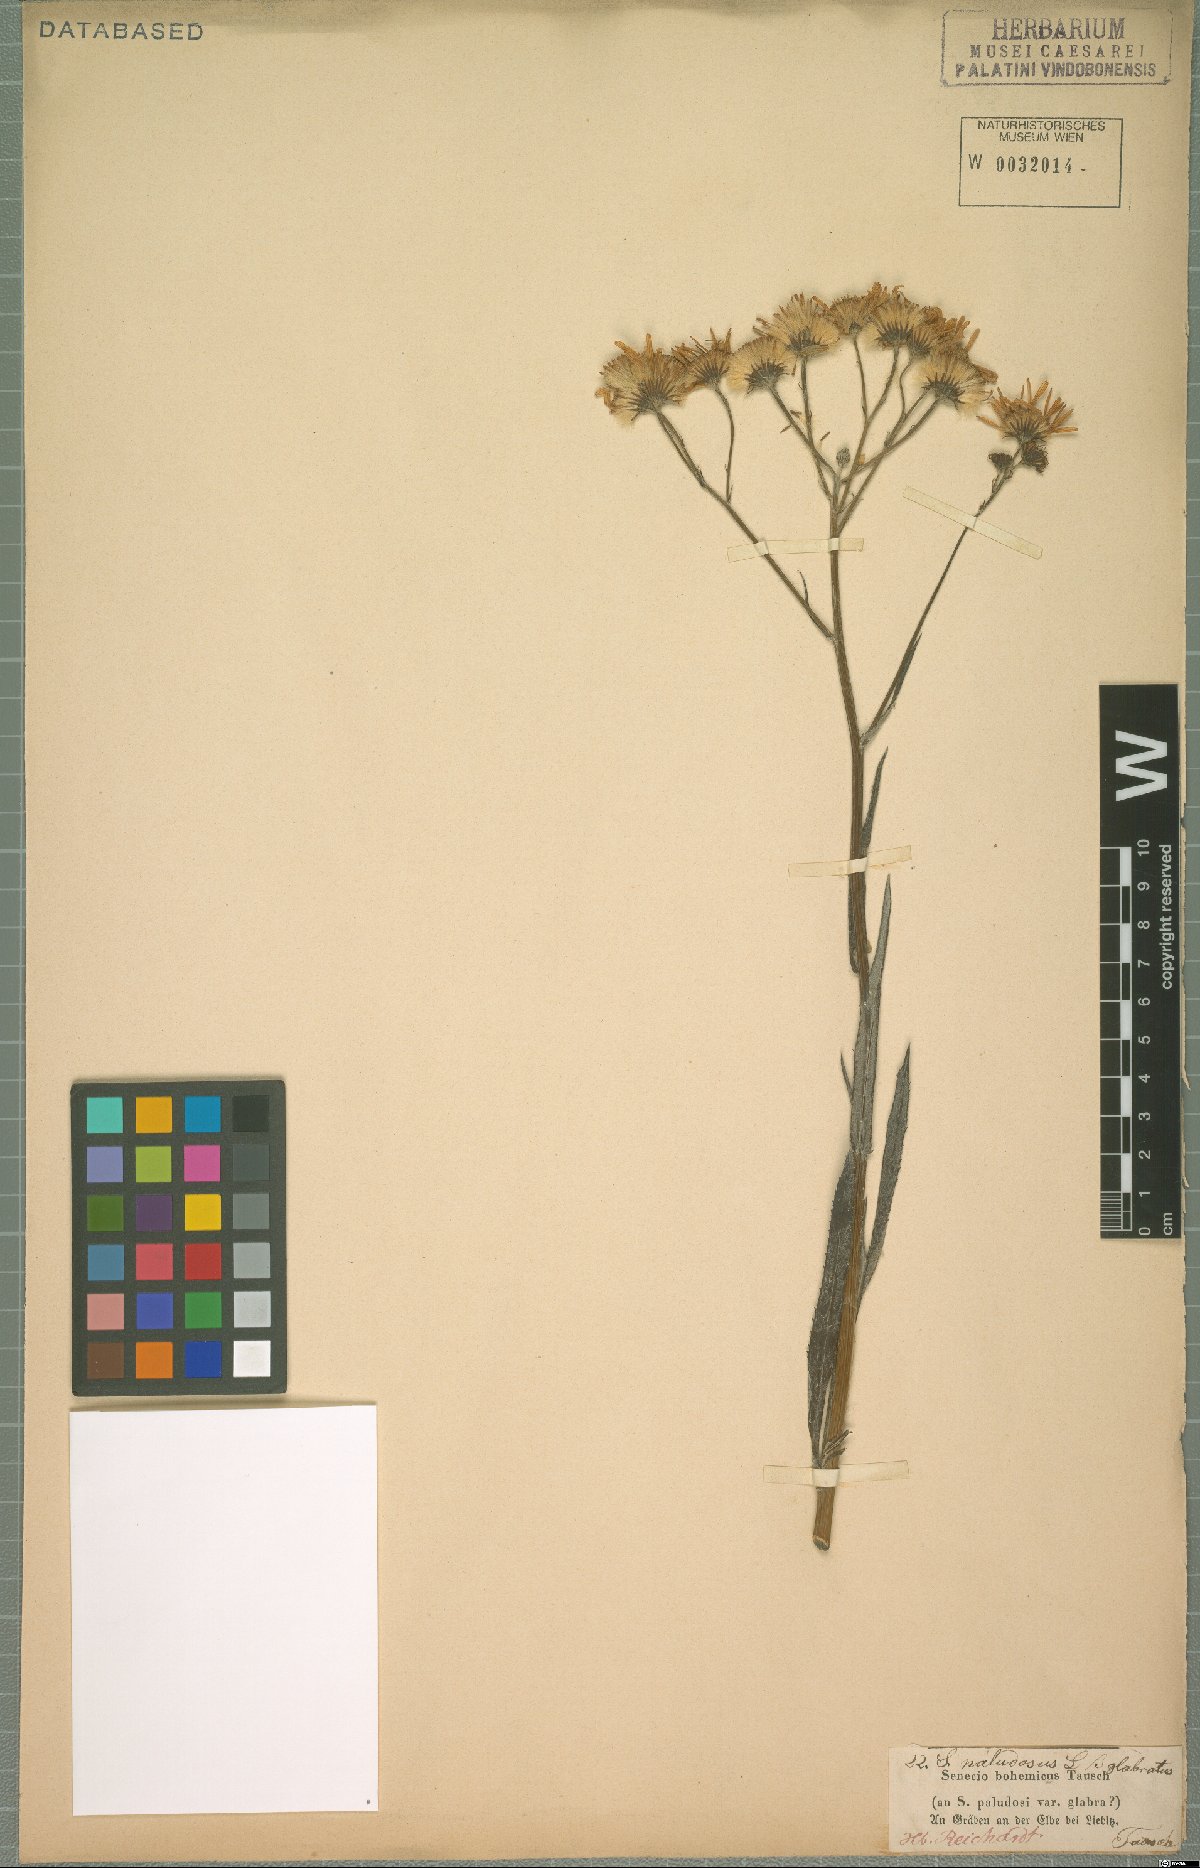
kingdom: Plantae
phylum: Tracheophyta
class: Magnoliopsida
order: Asterales
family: Asteraceae
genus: Jacobaea
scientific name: Jacobaea paludosa
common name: Fen ragwort
